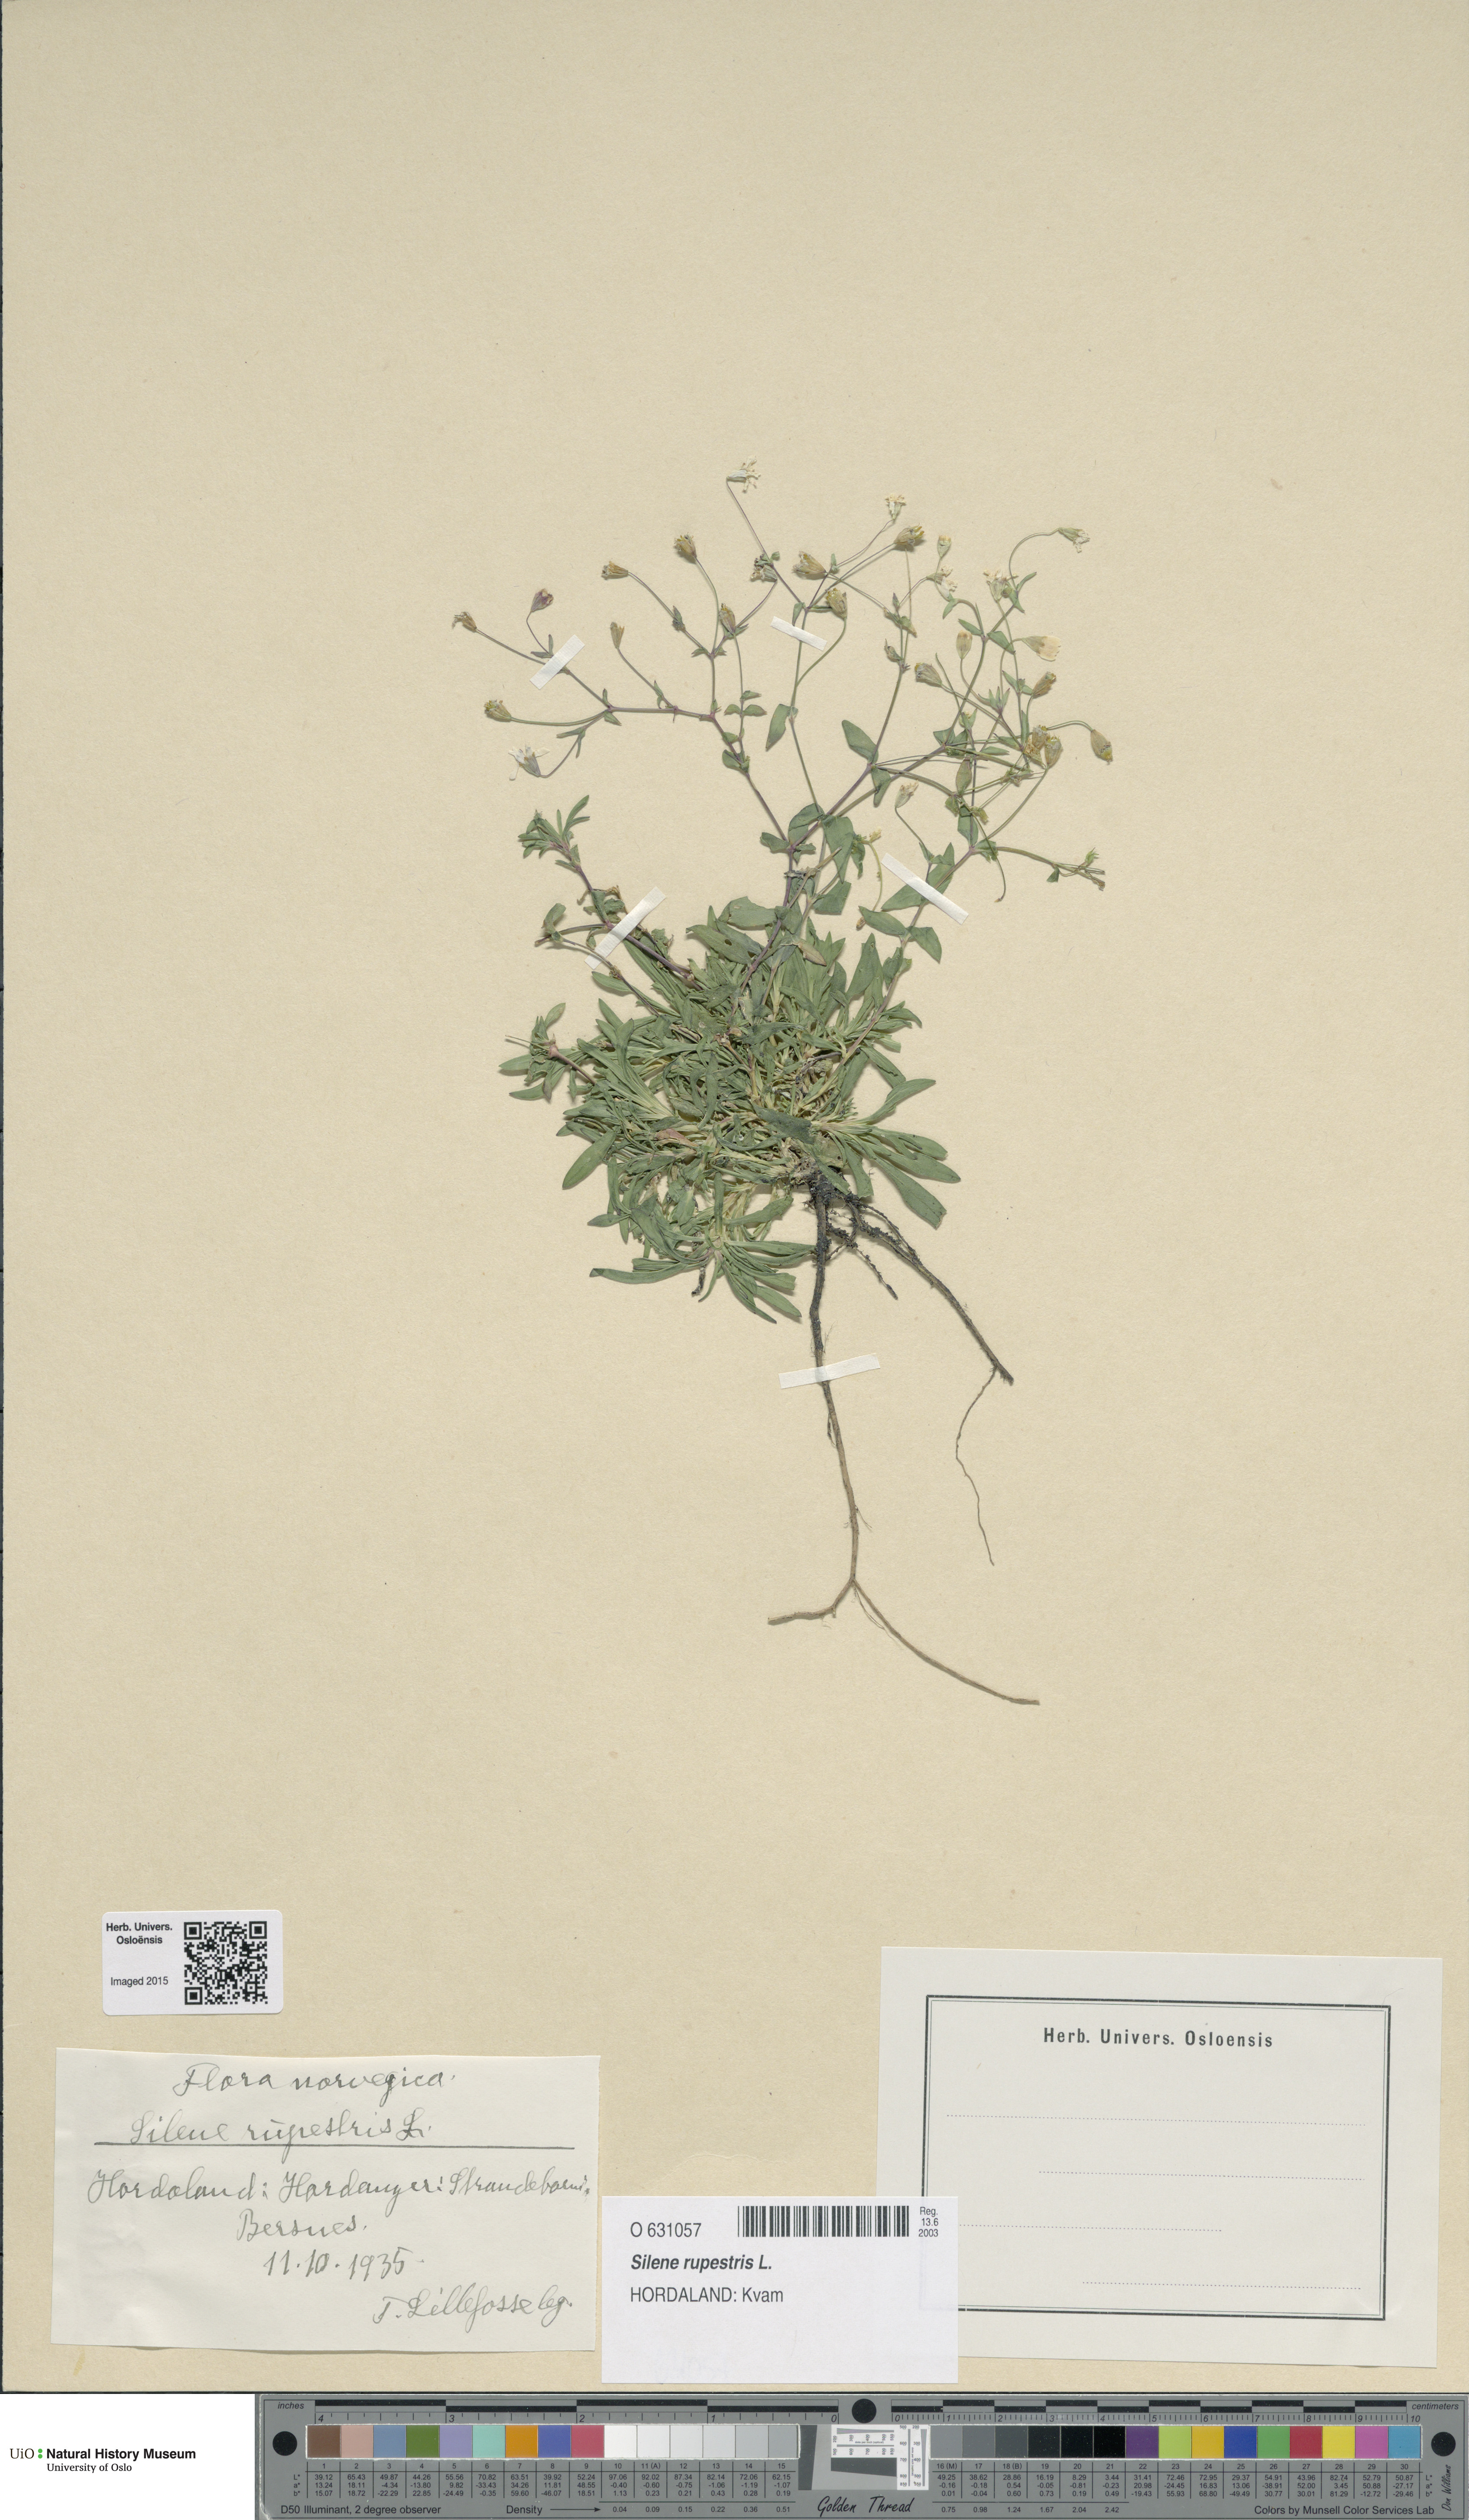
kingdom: Plantae
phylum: Tracheophyta
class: Magnoliopsida
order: Caryophyllales
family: Caryophyllaceae
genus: Atocion
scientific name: Atocion rupestre
